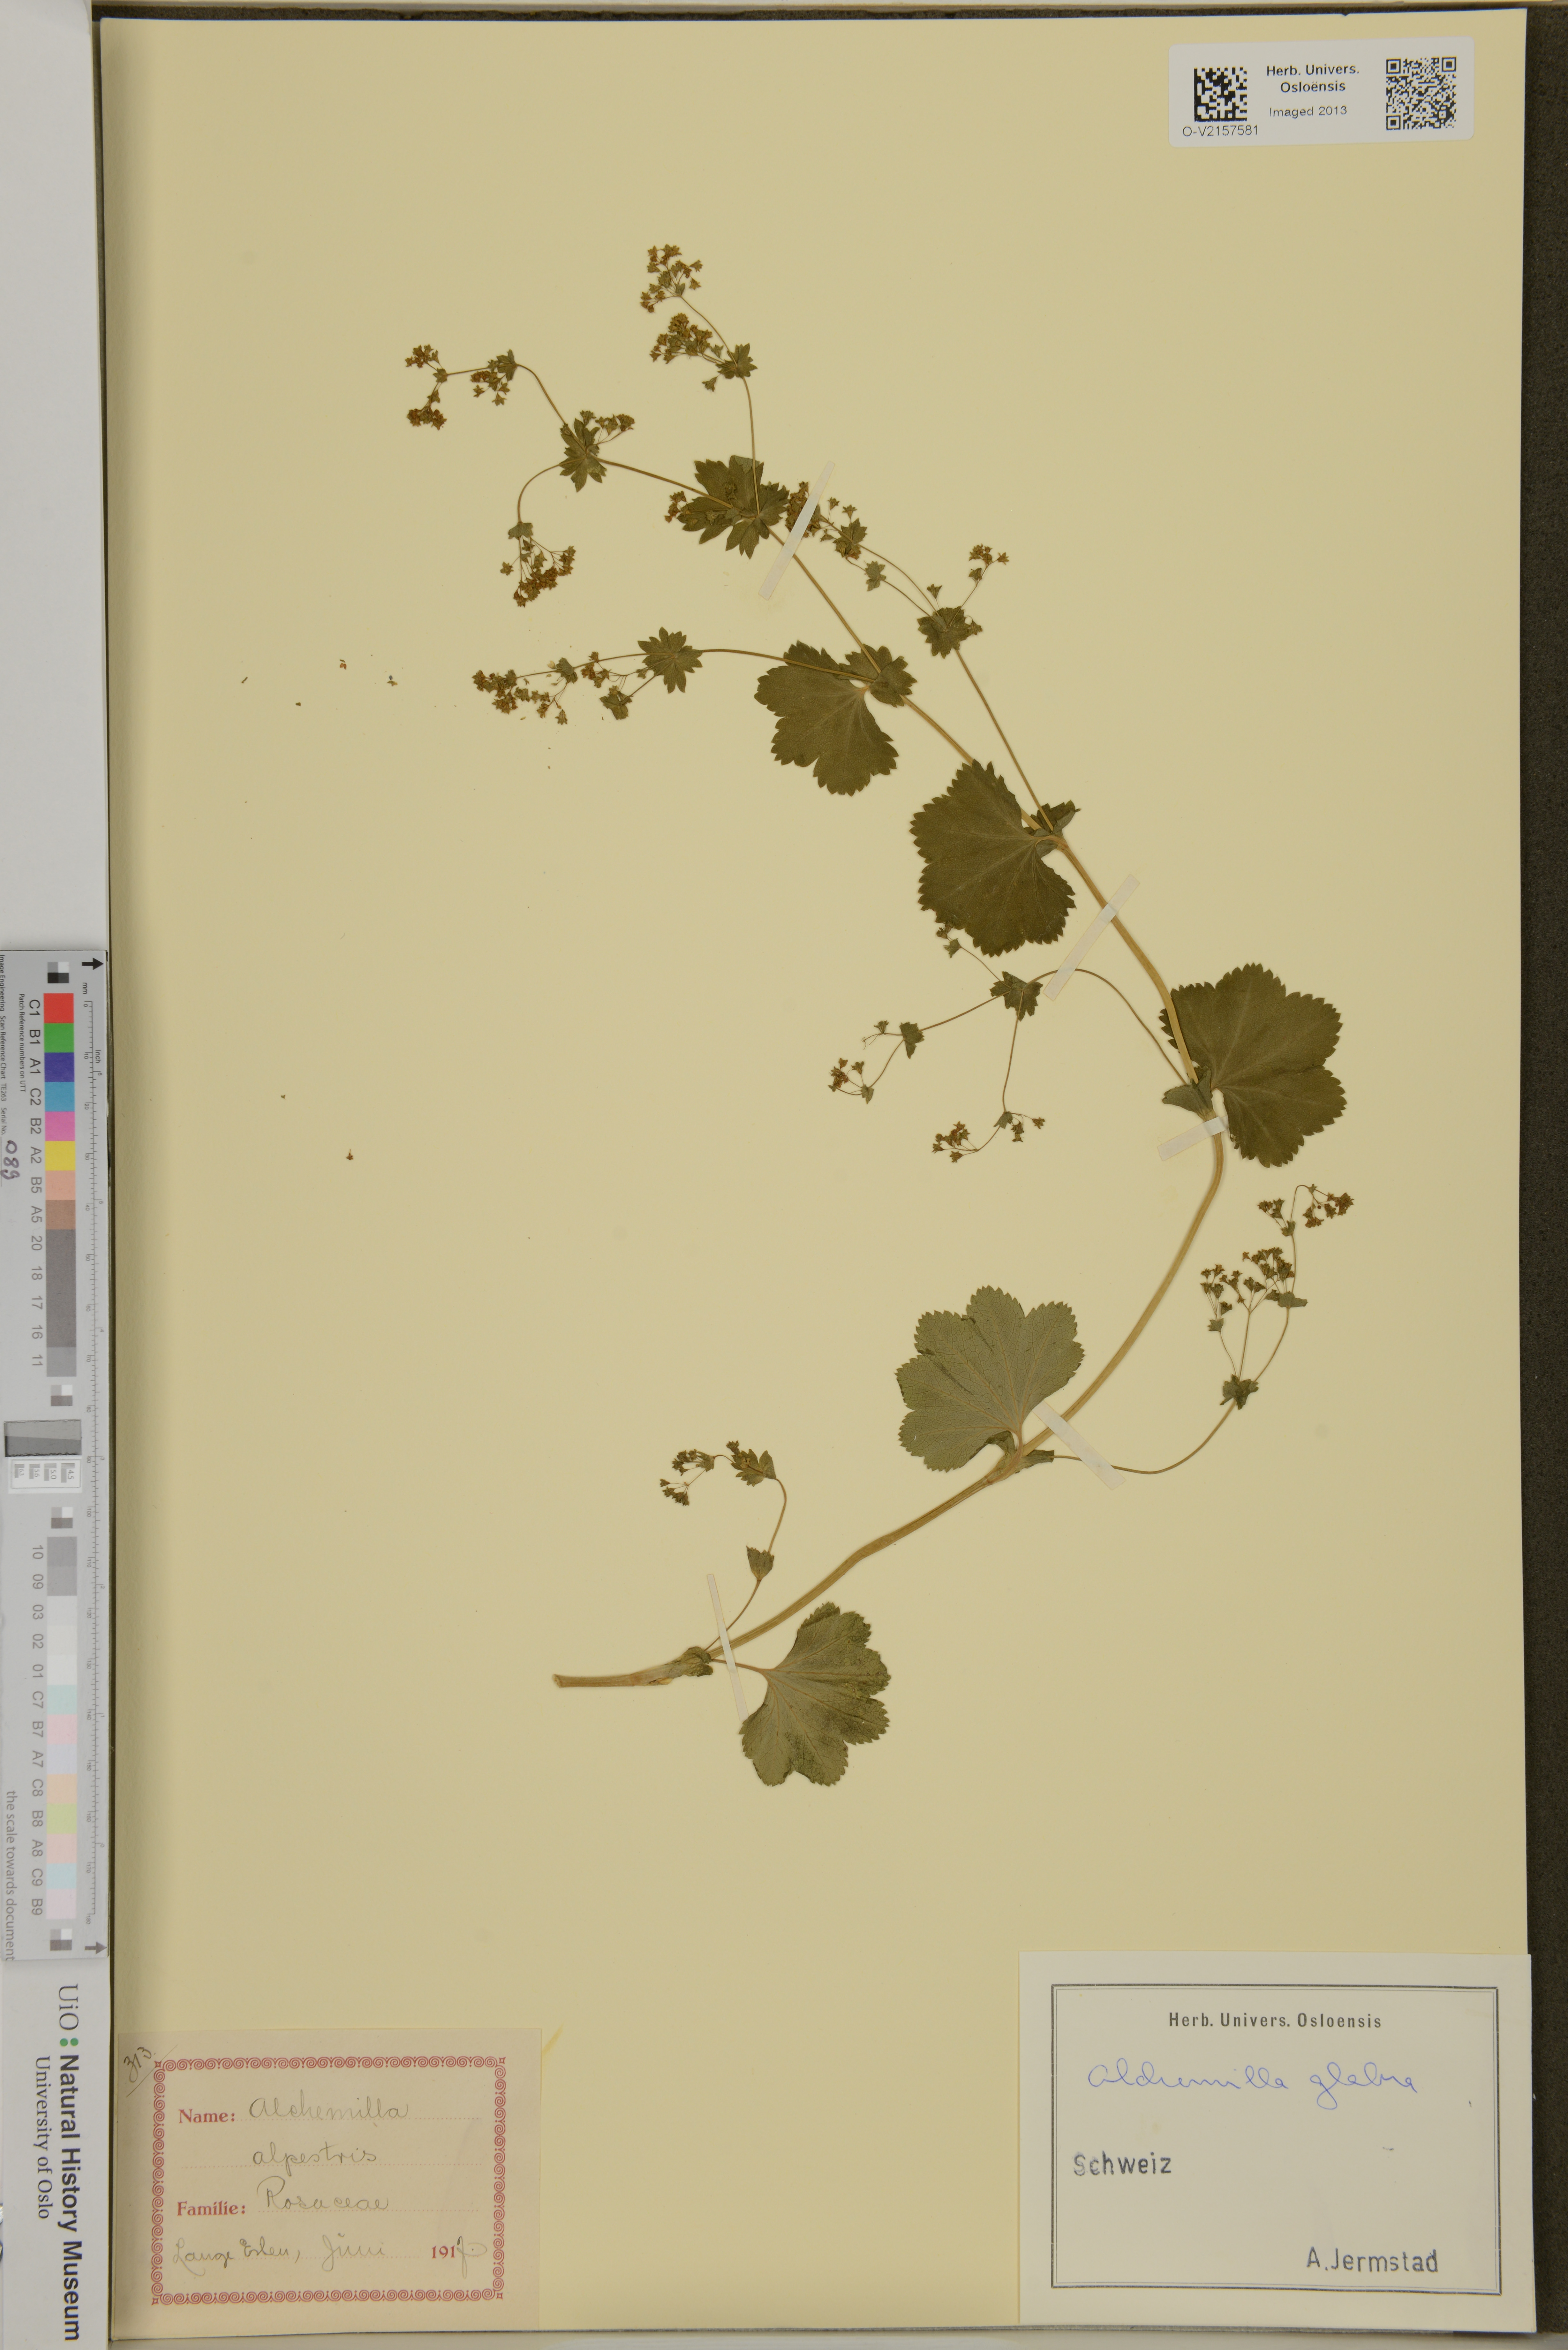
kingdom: Plantae
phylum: Tracheophyta
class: Magnoliopsida
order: Rosales
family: Rosaceae
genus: Alchemilla
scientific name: Alchemilla glabra
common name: Smooth lady's-mantle
